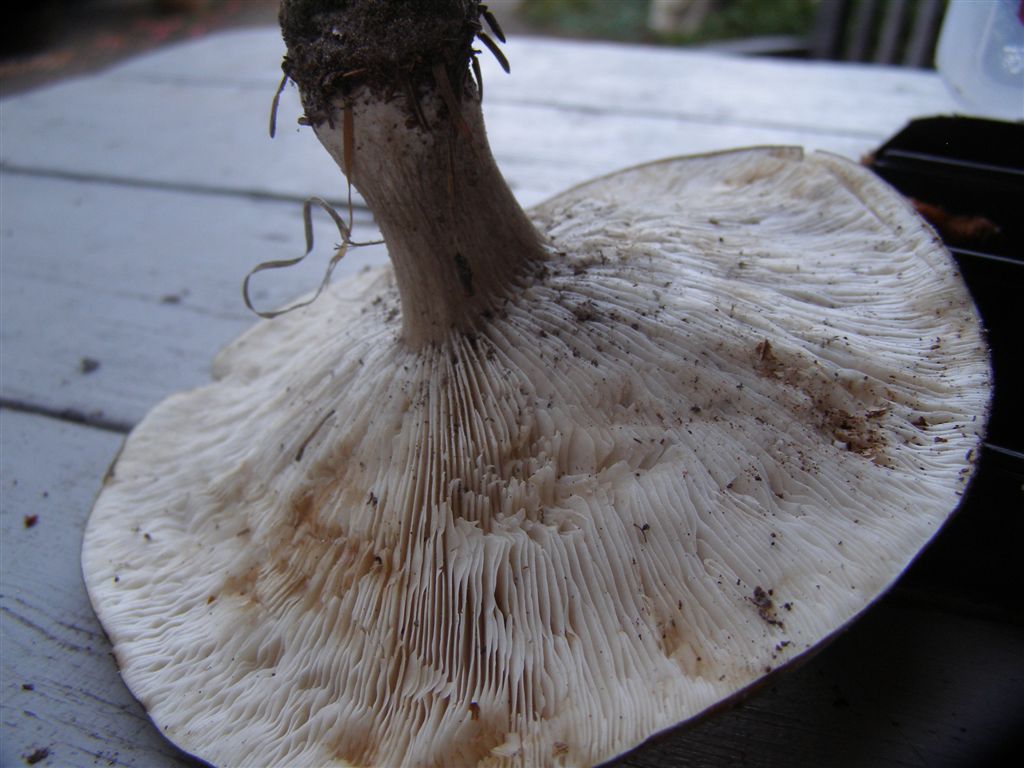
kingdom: Fungi
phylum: Basidiomycota
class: Agaricomycetes
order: Agaricales
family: Tricholomataceae
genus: Melanoleuca
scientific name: Melanoleuca
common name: munkehat
